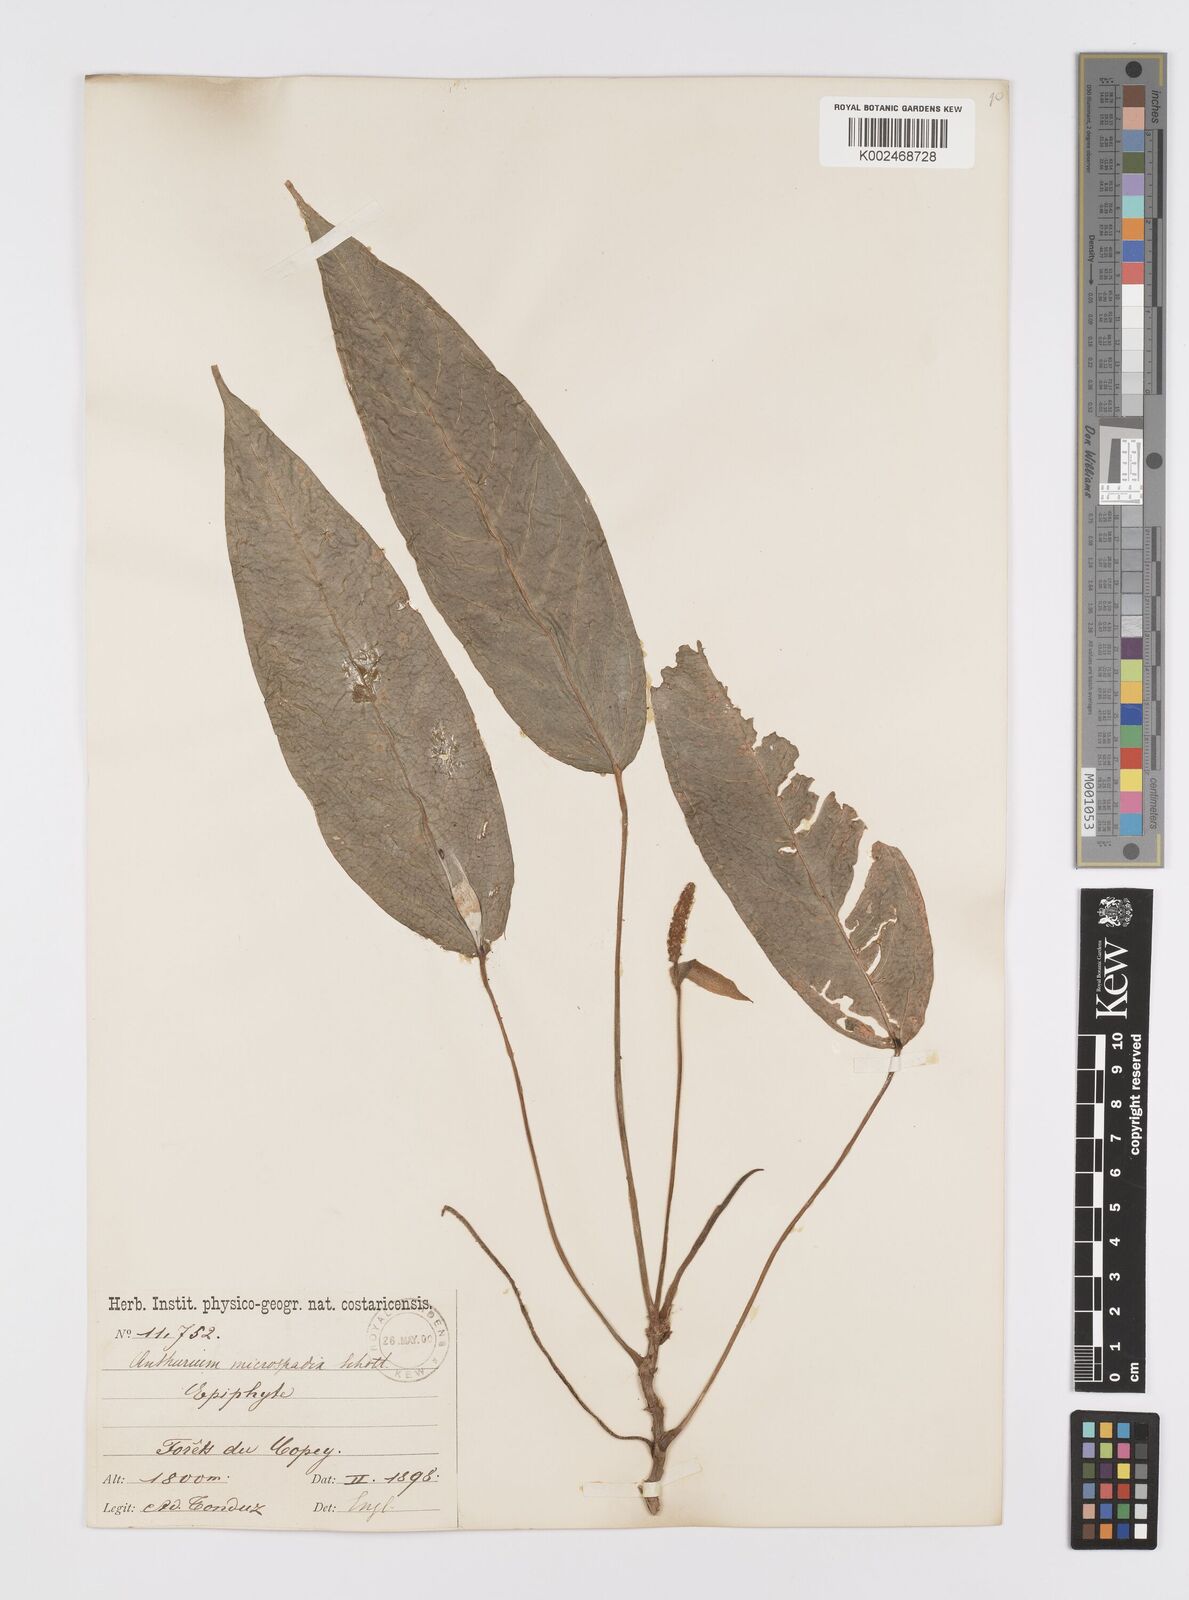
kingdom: Plantae
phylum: Tracheophyta
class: Liliopsida
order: Alismatales
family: Araceae
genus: Anthurium
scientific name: Anthurium microspadix
